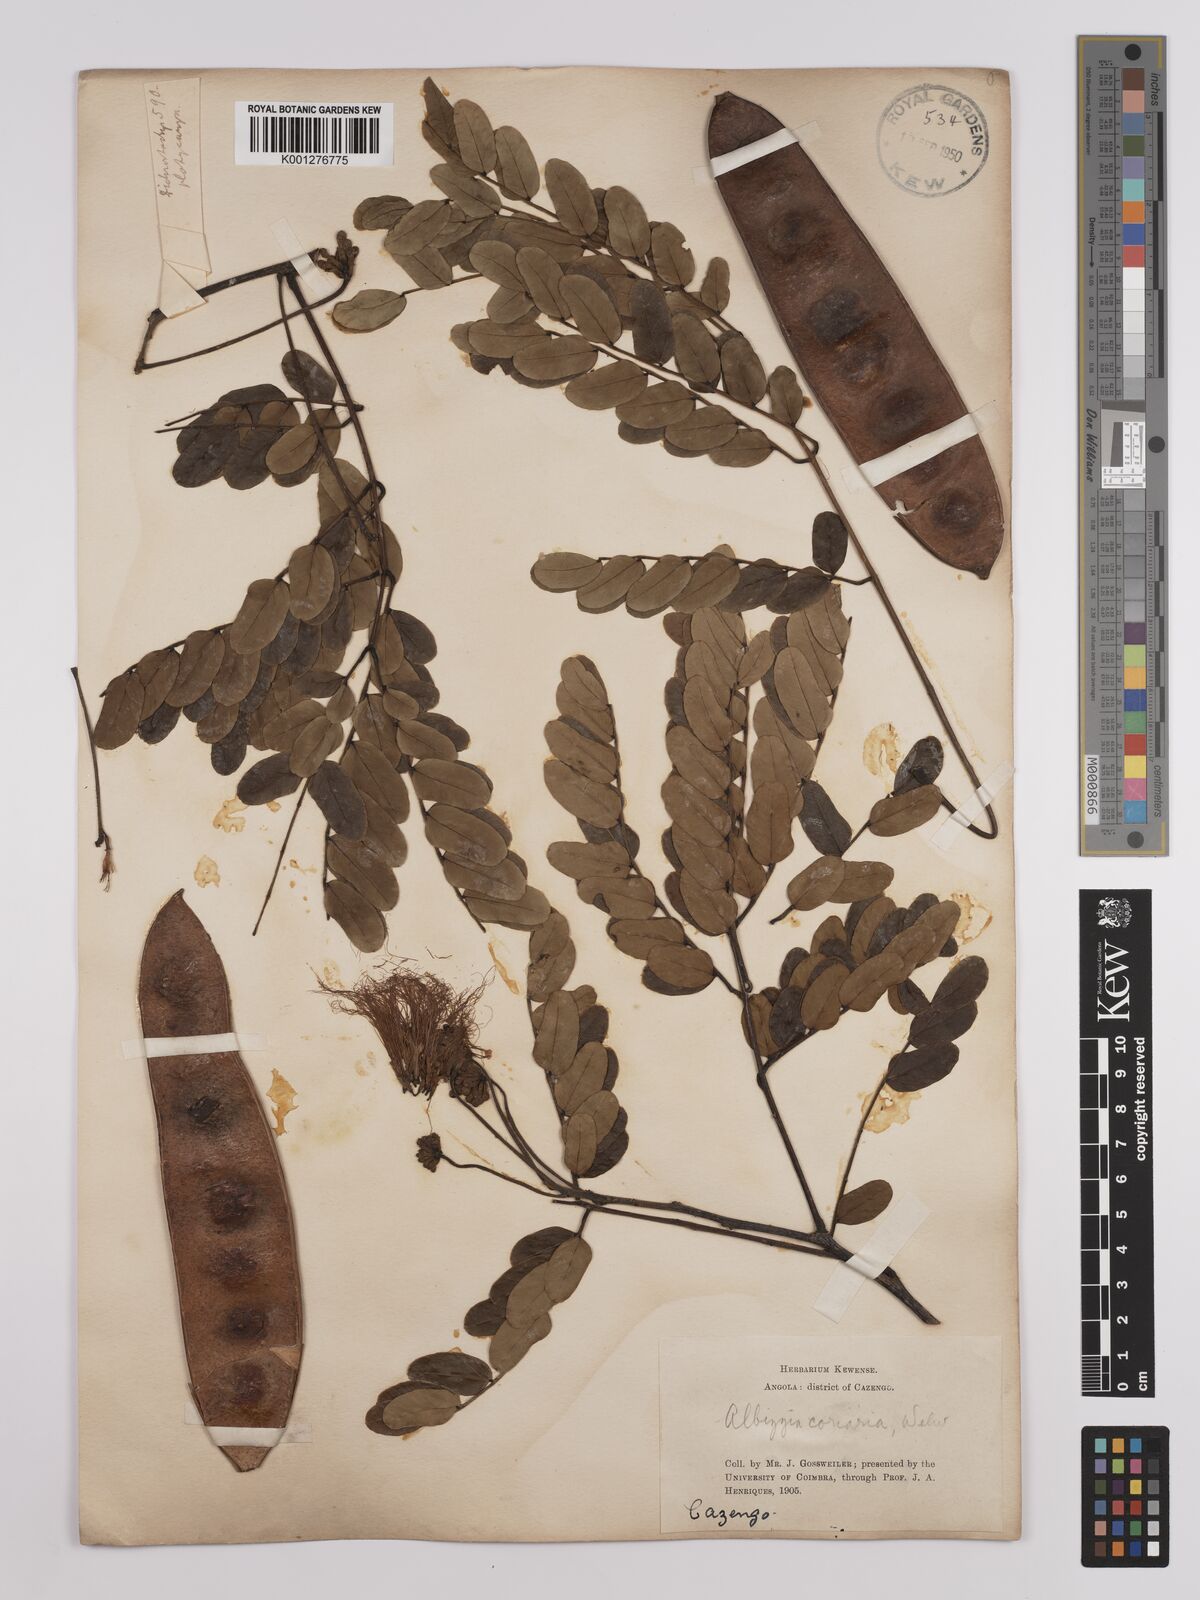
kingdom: Plantae
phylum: Tracheophyta
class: Magnoliopsida
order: Fabales
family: Fabaceae
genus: Albizia
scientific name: Albizia coriaria
